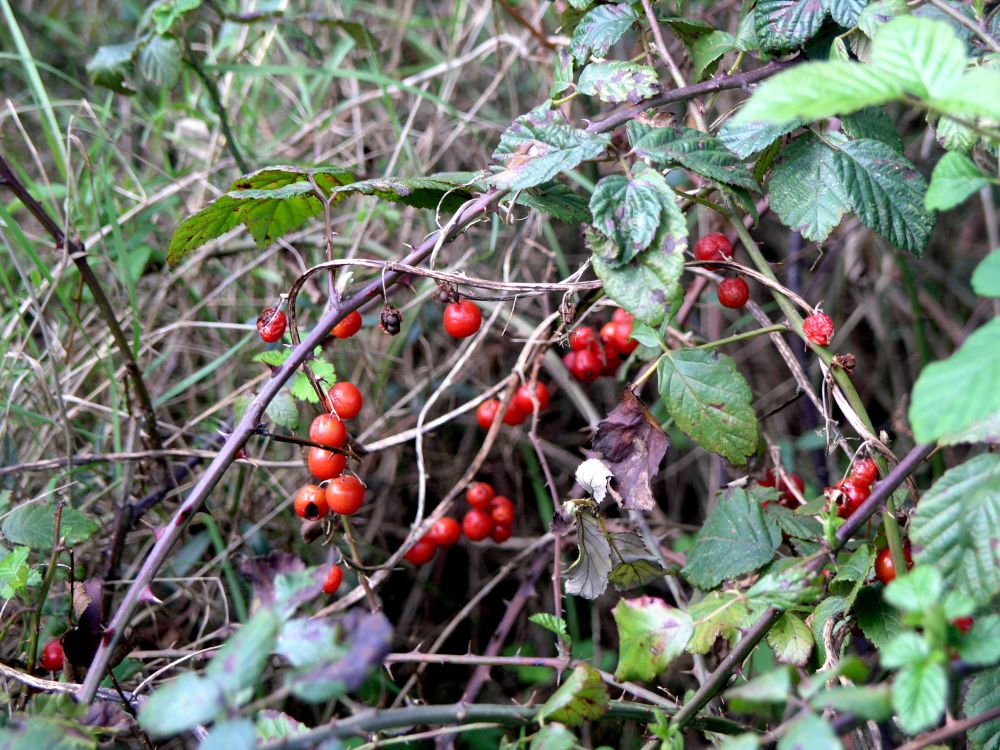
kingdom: Plantae
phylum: Tracheophyta
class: Magnoliopsida
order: Cucurbitales
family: Cucurbitaceae
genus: Bryonia
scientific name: Bryonia dioica
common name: White bryony
